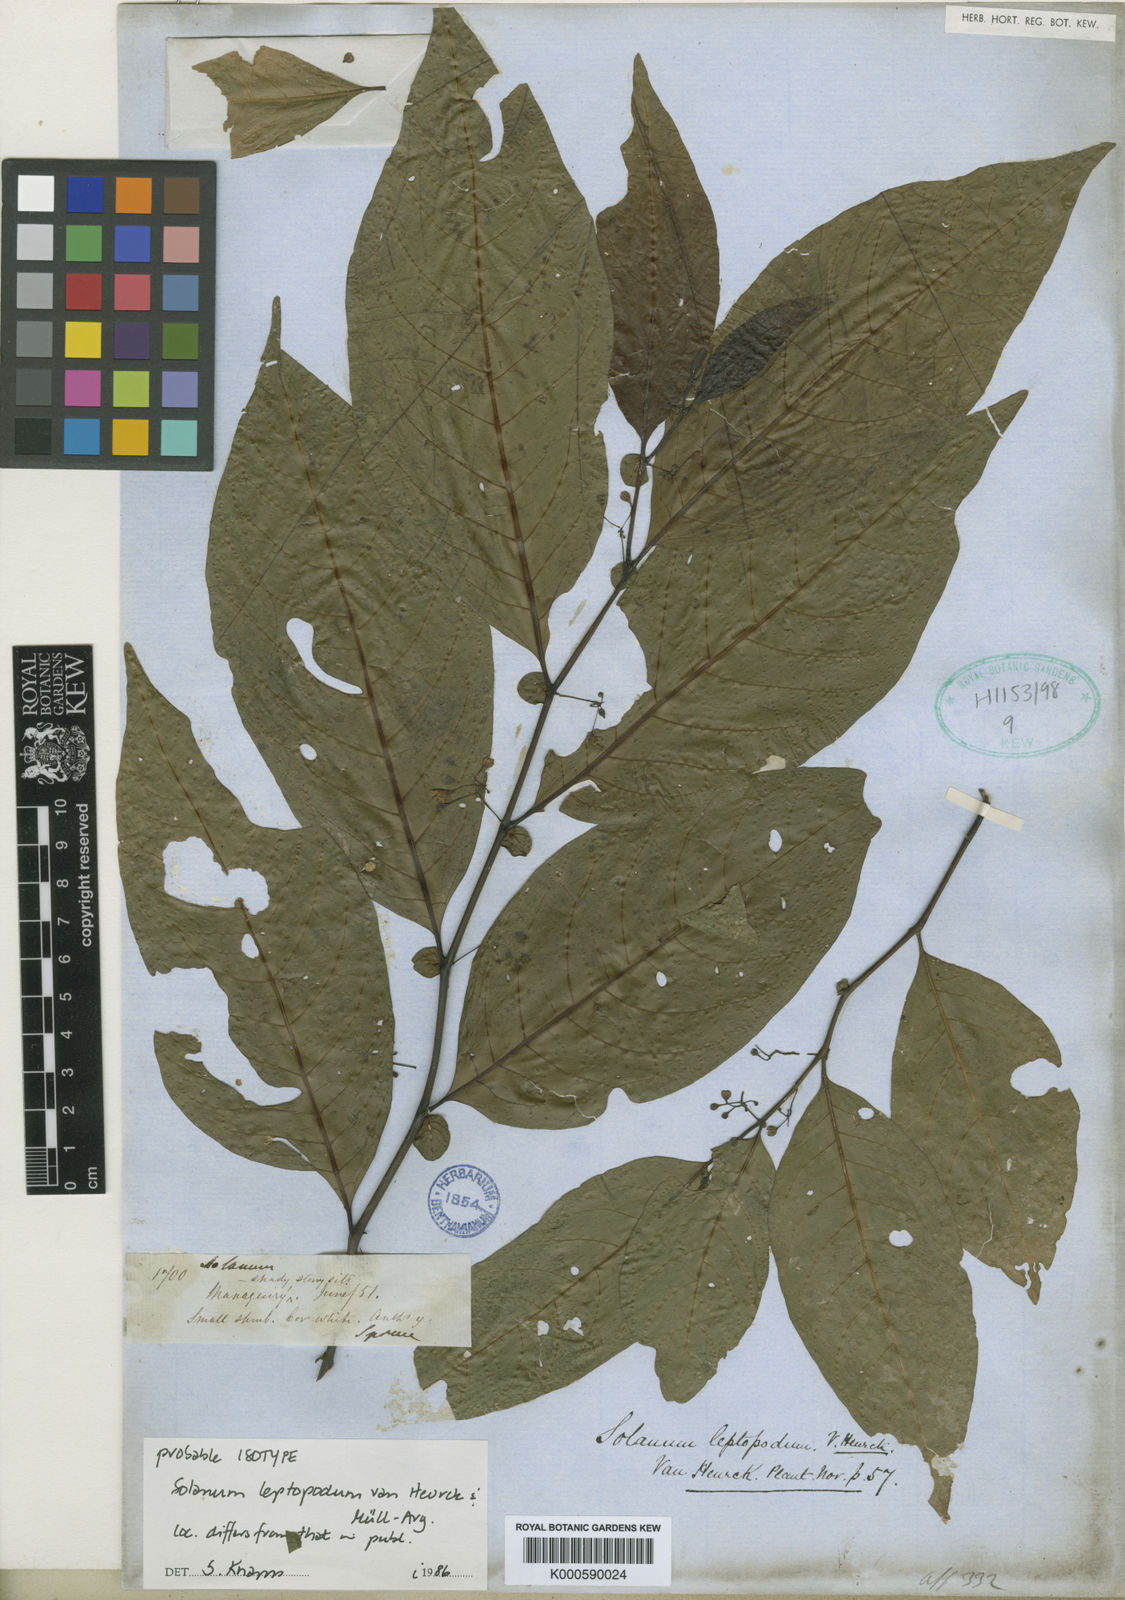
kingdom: Plantae
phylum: Tracheophyta
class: Magnoliopsida
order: Solanales
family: Solanaceae
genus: Solanum
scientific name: Solanum
